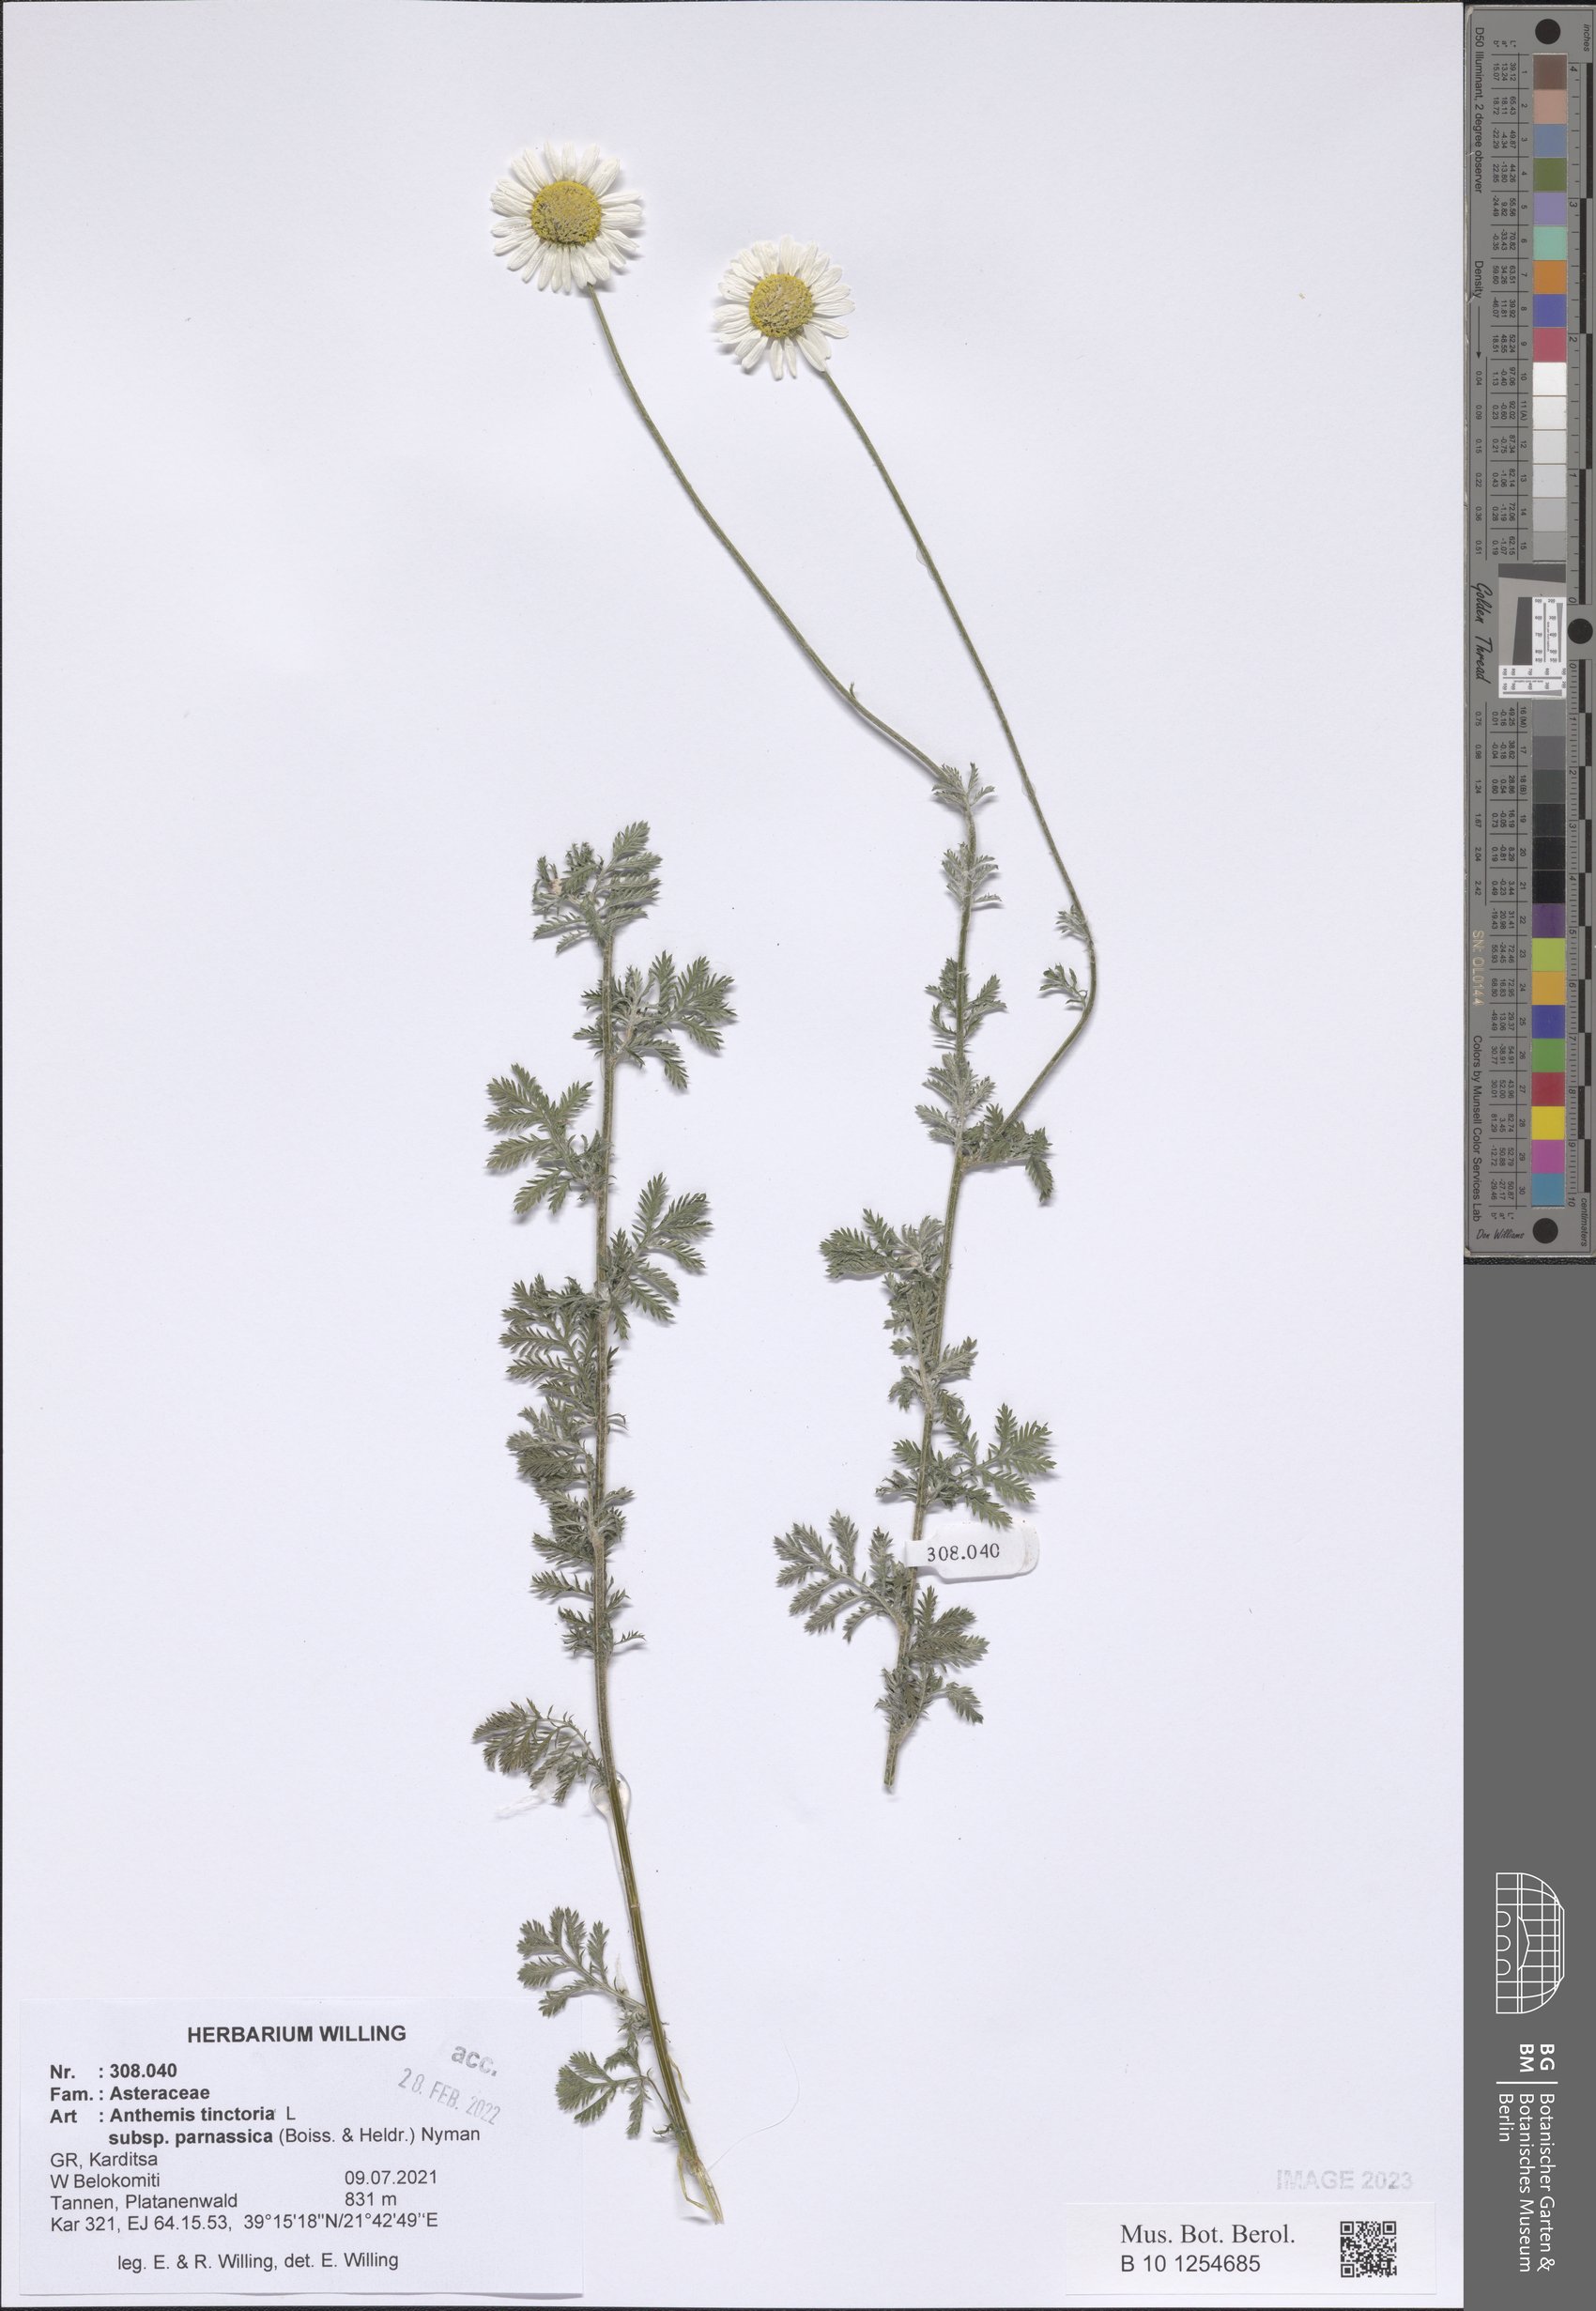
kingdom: Plantae
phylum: Tracheophyta
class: Magnoliopsida
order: Asterales
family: Asteraceae
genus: Cota
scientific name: Cota tinctoria
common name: Golden chamomile
